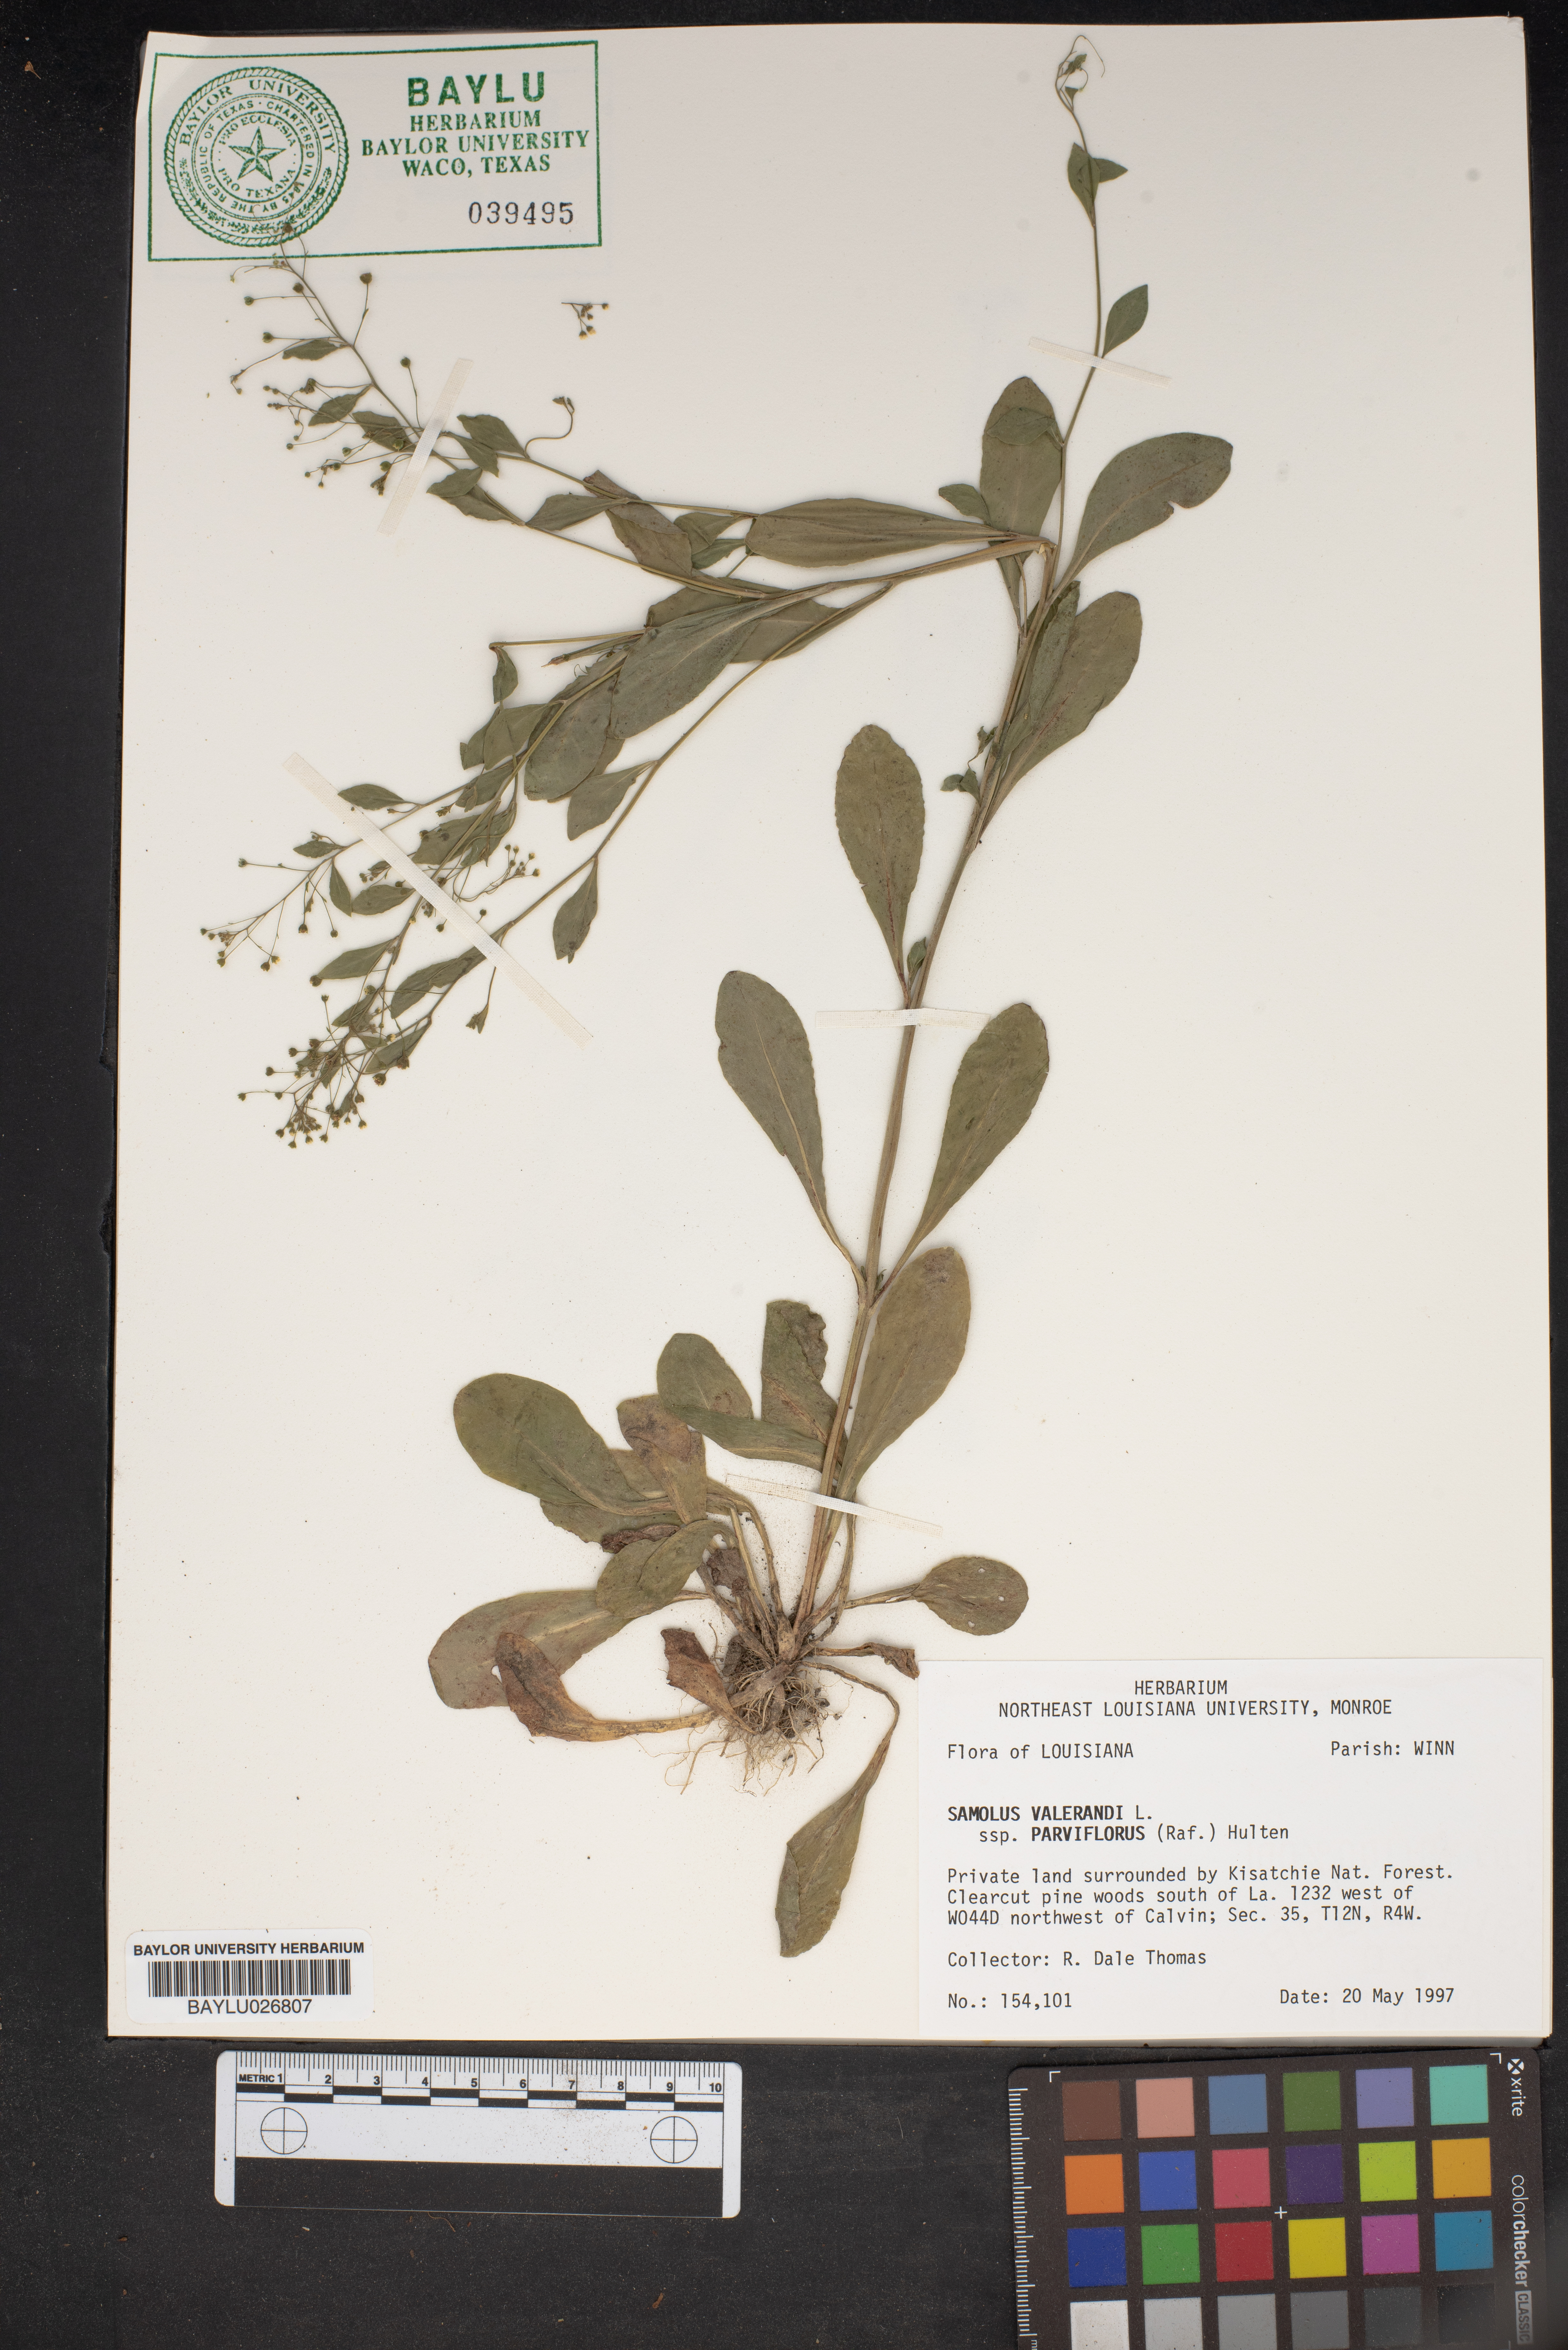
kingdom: Plantae
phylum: Tracheophyta
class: Magnoliopsida
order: Ericales
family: Primulaceae
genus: Samolus
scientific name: Samolus parviflorus
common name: False water pimpernel
